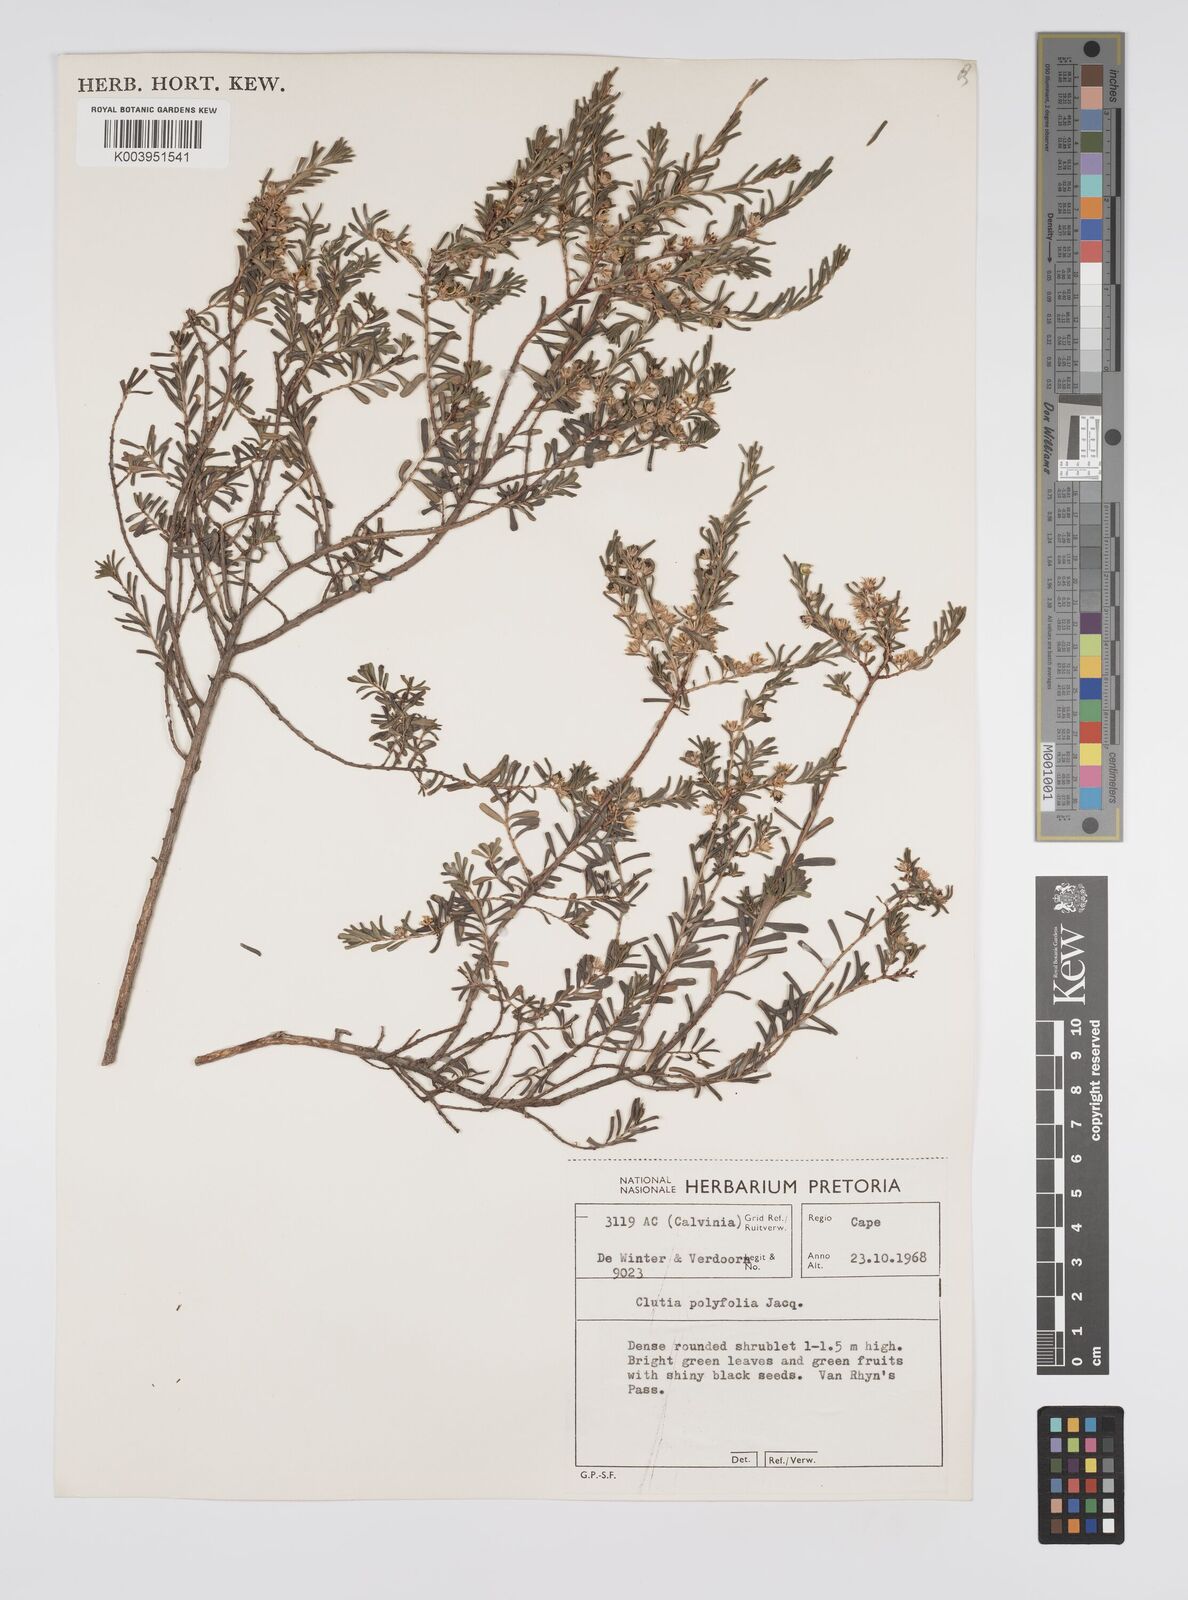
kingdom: Plantae
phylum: Tracheophyta
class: Magnoliopsida
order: Malpighiales
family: Peraceae
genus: Clutia
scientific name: Clutia
